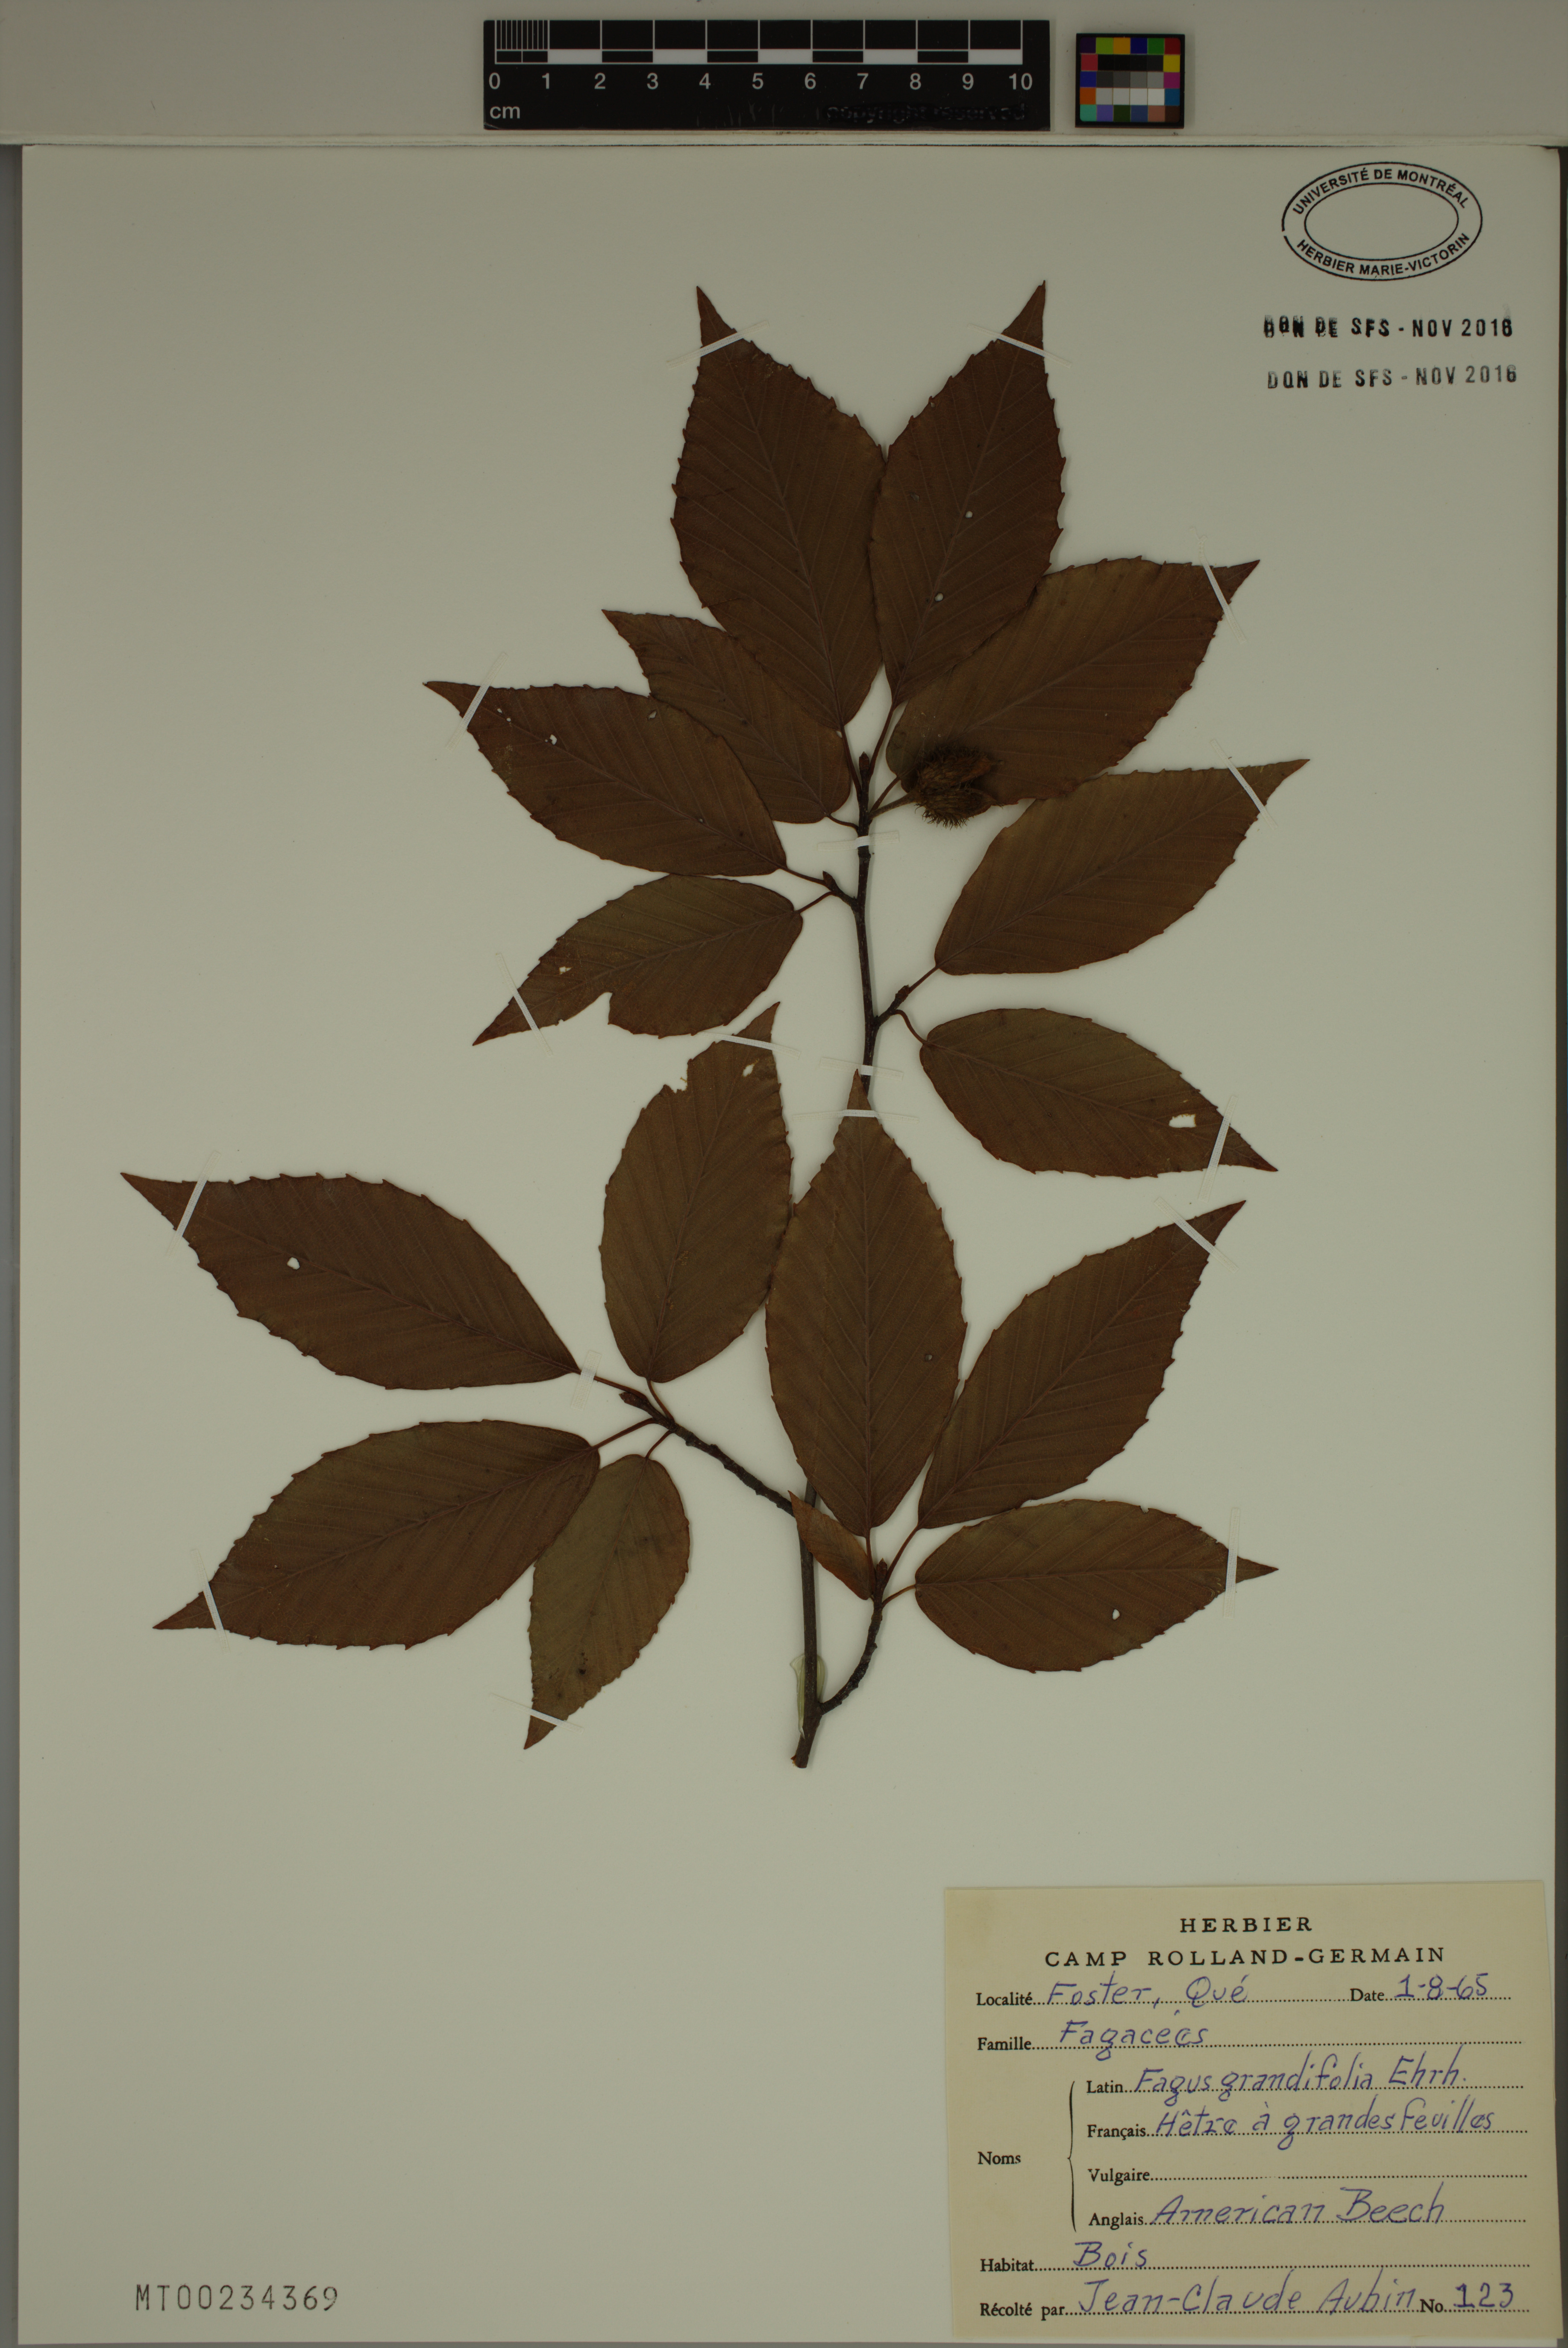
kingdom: Plantae
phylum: Tracheophyta
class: Magnoliopsida
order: Fagales
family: Fagaceae
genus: Fagus
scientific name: Fagus grandifolia
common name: American beech
